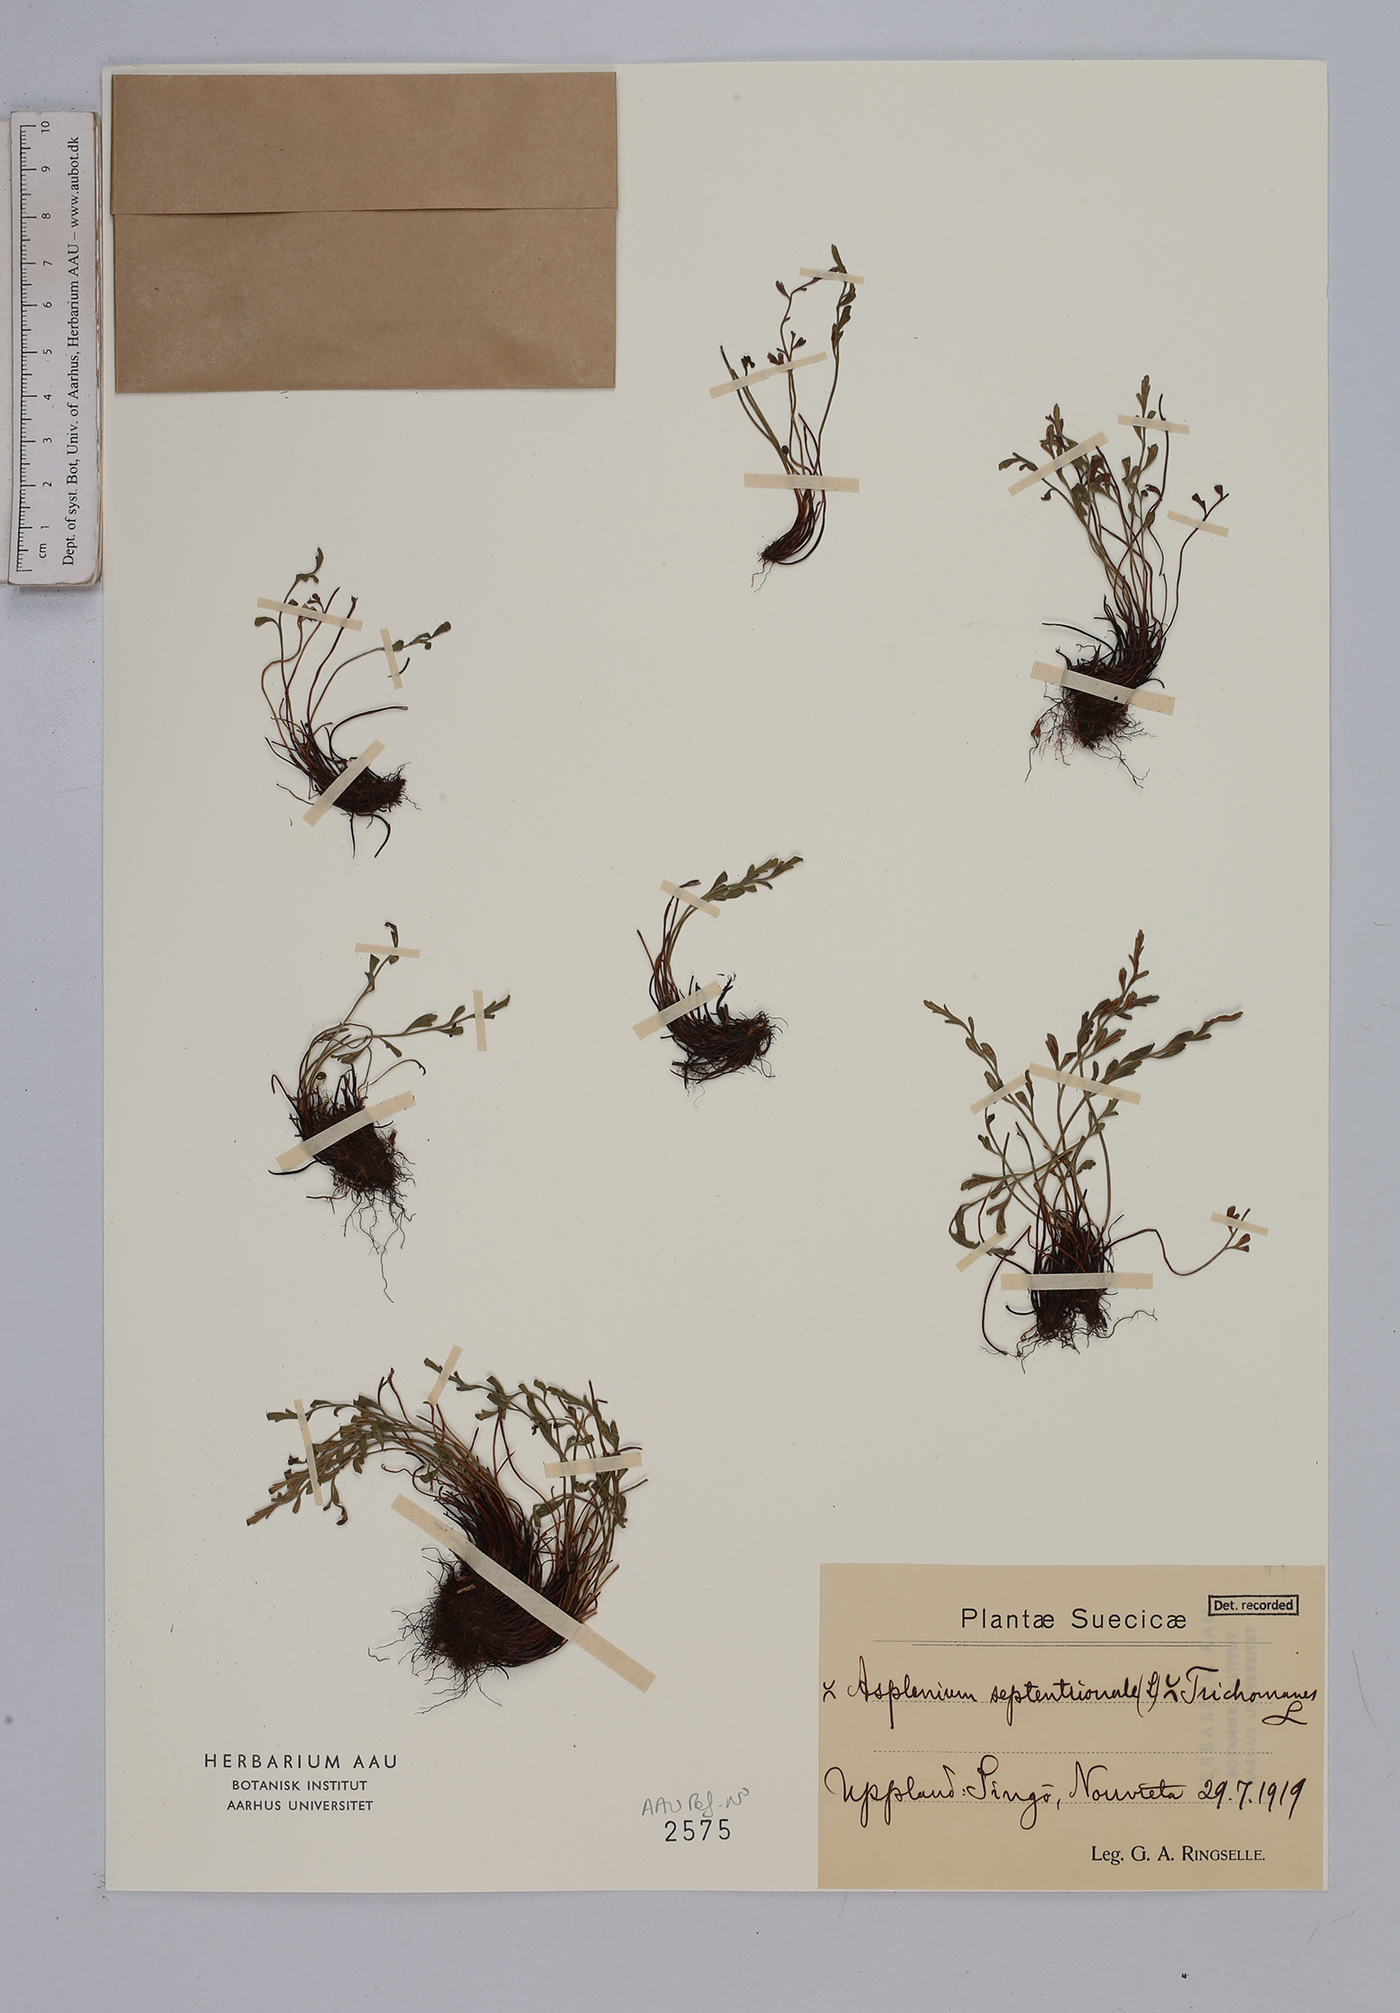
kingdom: Plantae
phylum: Tracheophyta
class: Polypodiopsida
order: Polypodiales
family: Aspleniaceae
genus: Asplenium
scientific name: Asplenium
